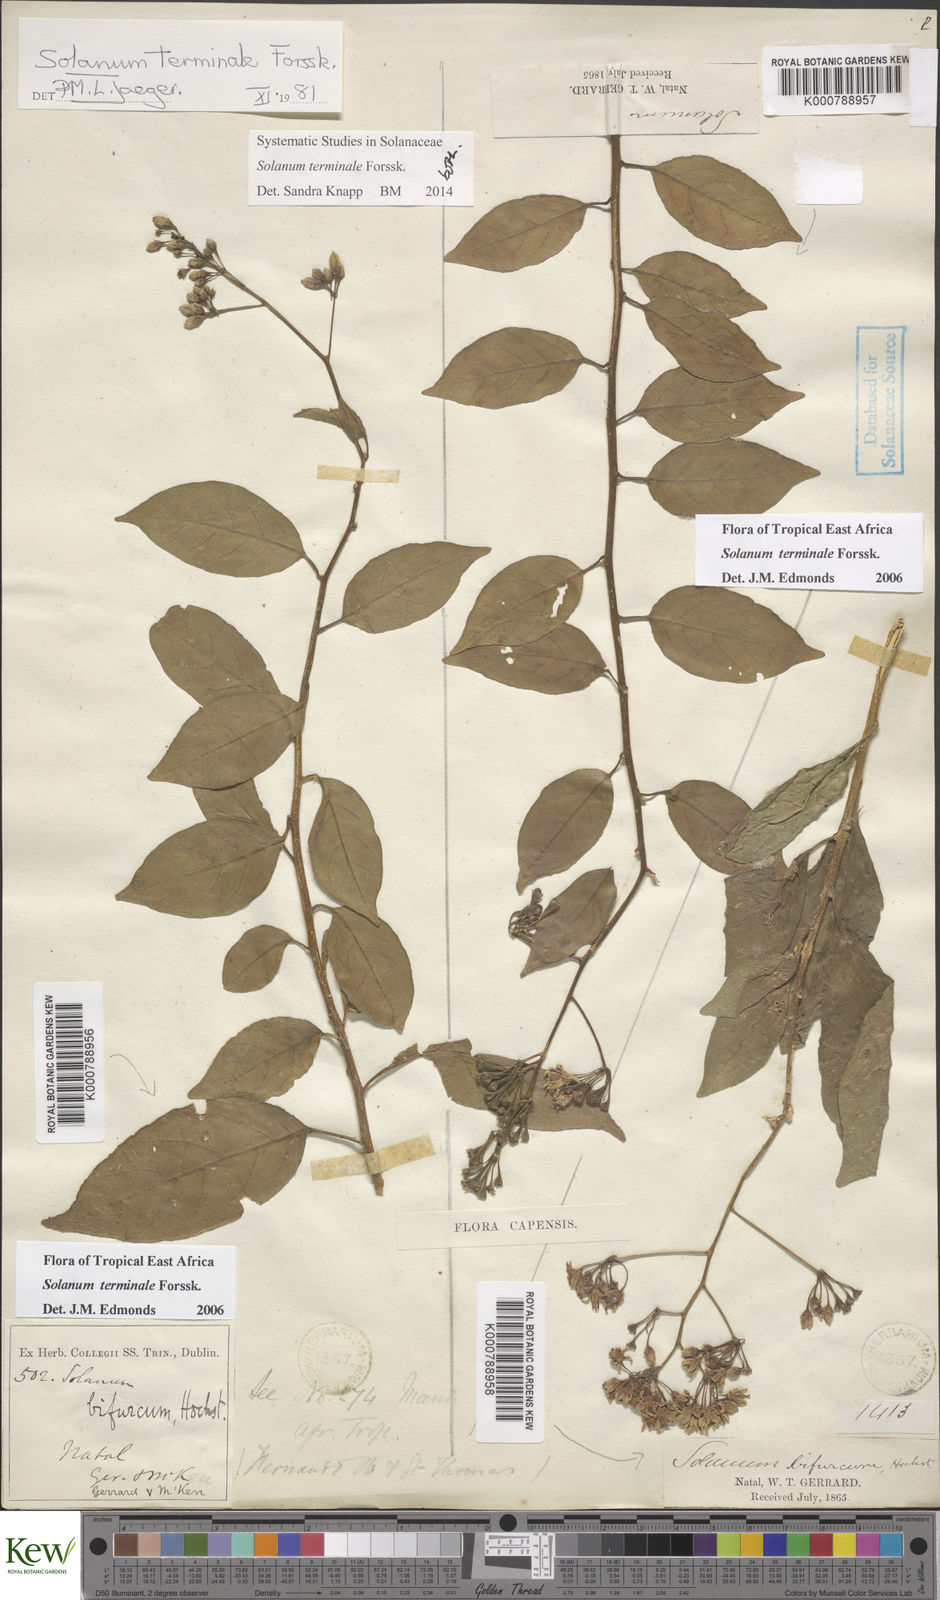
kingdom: Plantae
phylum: Tracheophyta
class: Magnoliopsida
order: Solanales
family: Solanaceae
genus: Solanum
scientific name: Solanum terminale
